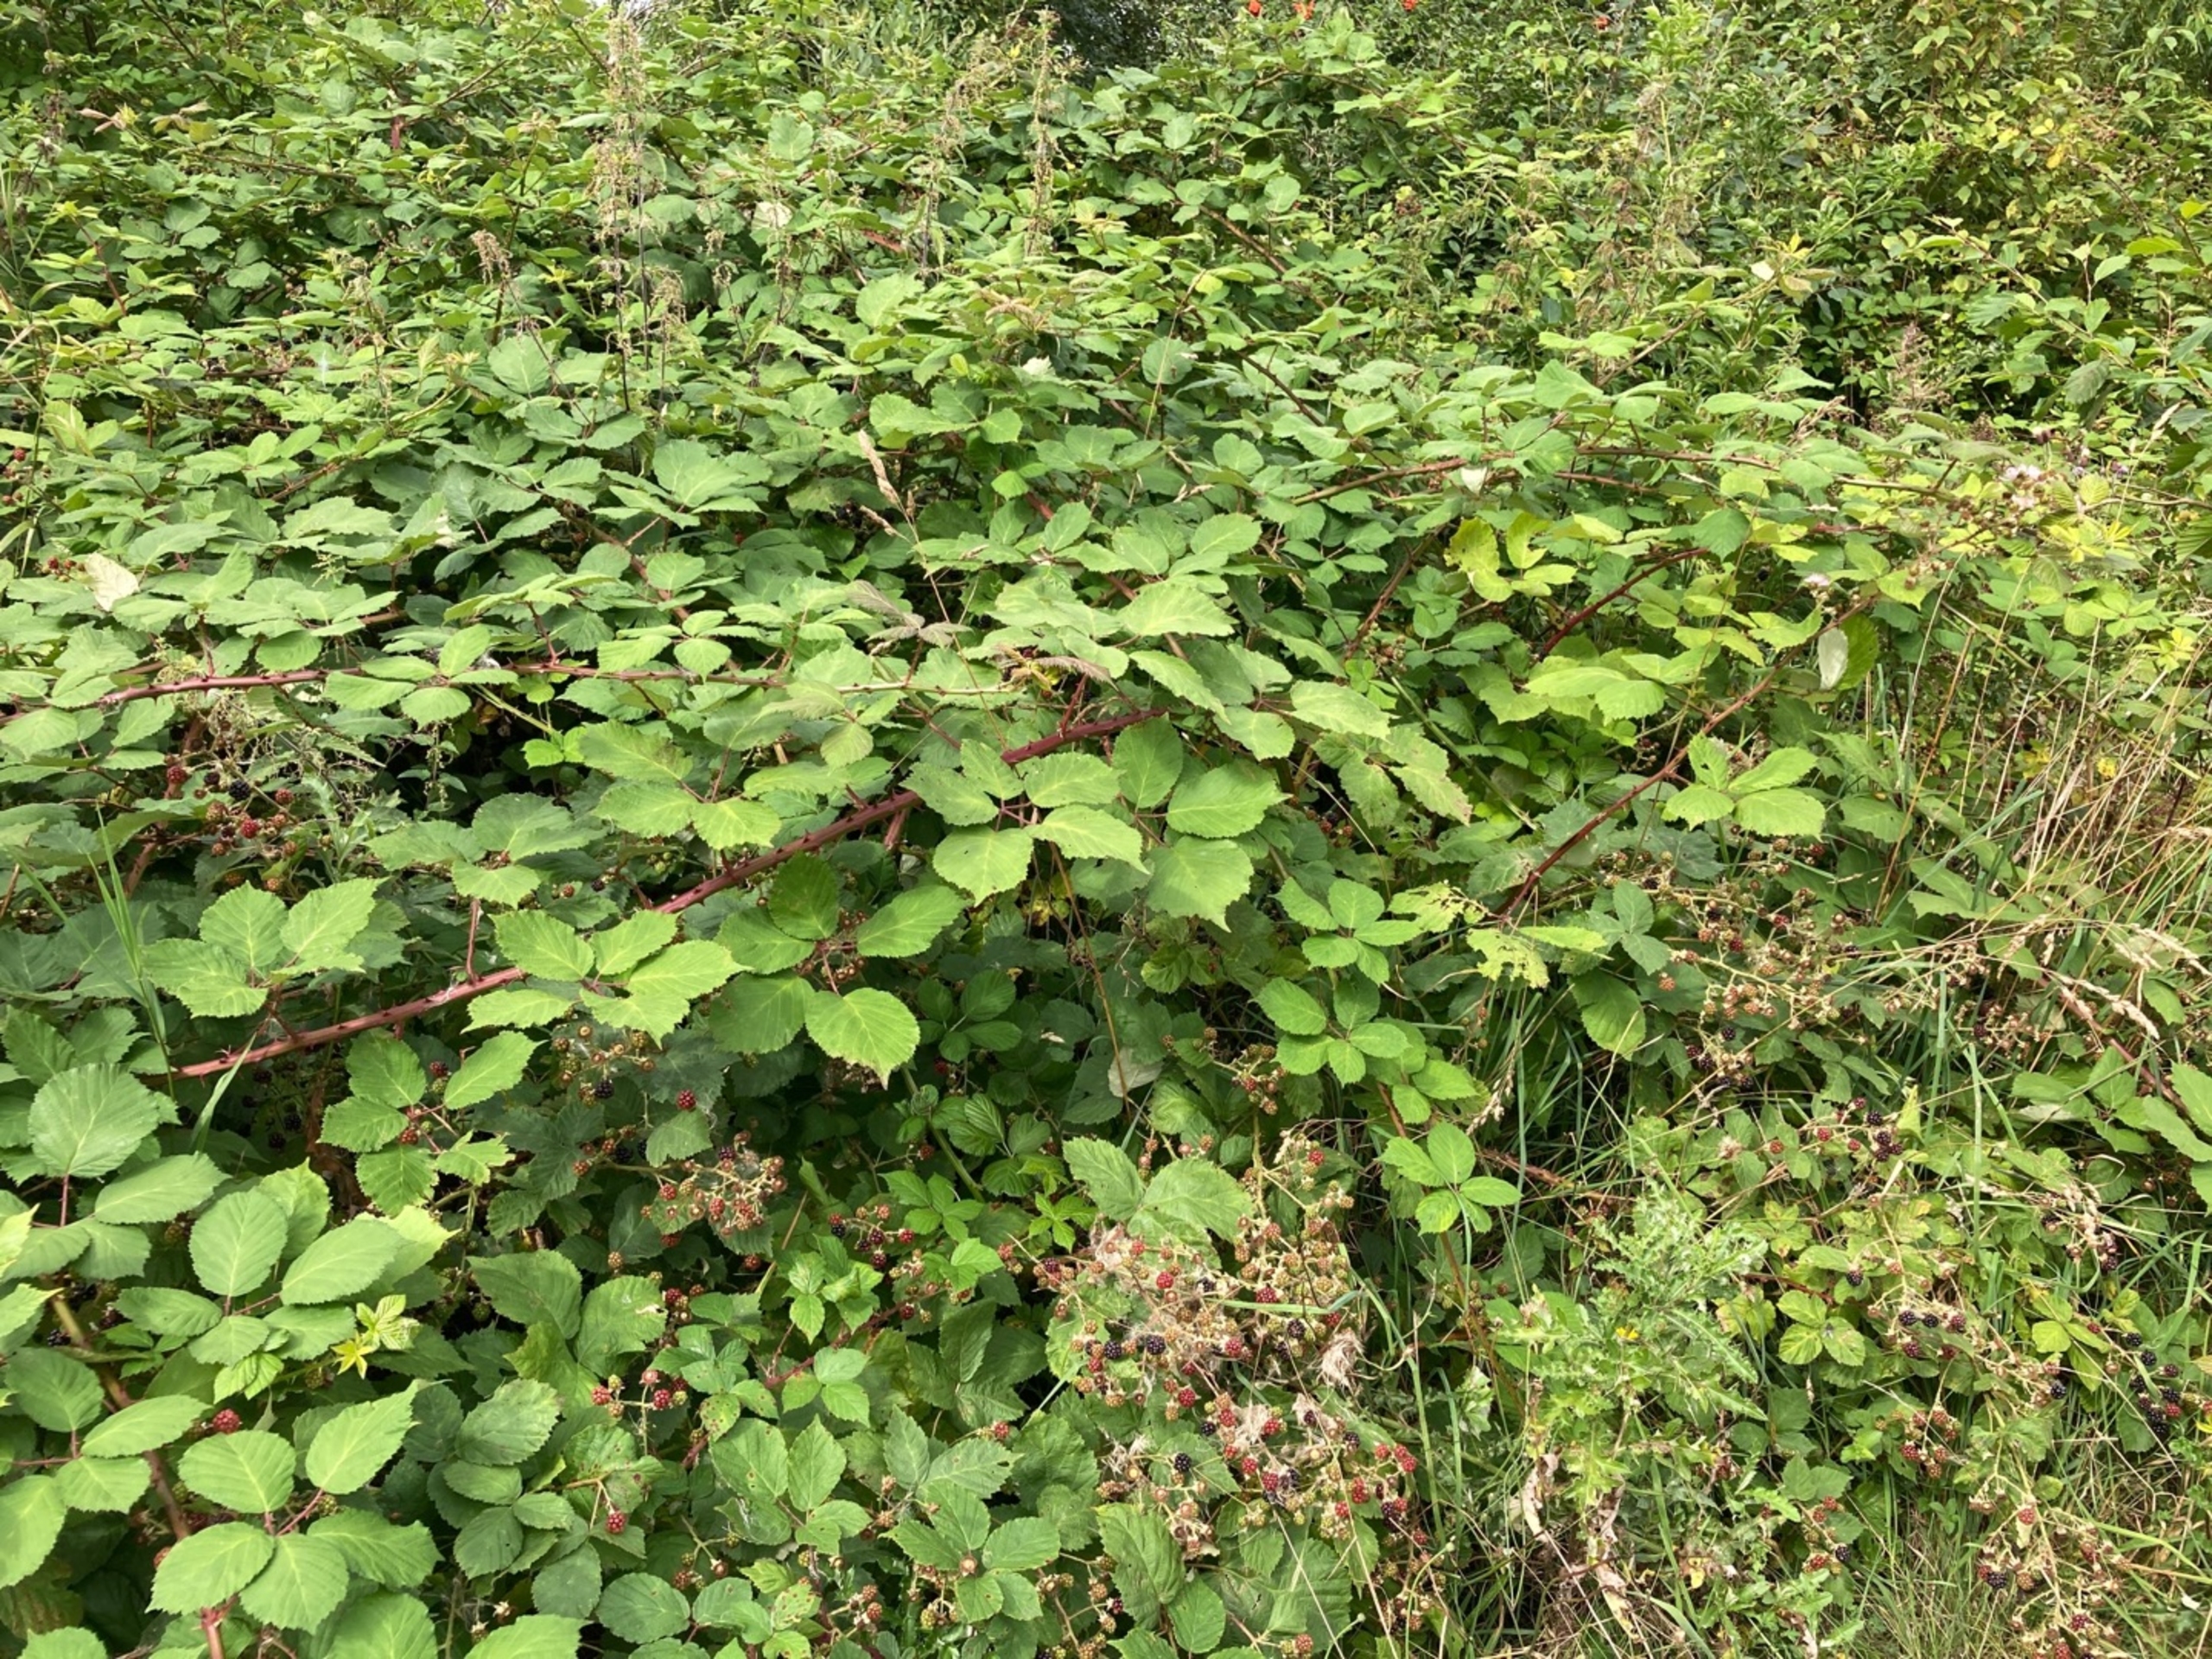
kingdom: Plantae
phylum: Tracheophyta
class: Magnoliopsida
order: Rosales
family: Rosaceae
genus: Rubus
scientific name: Rubus armeniacus
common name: Armensk brombær
